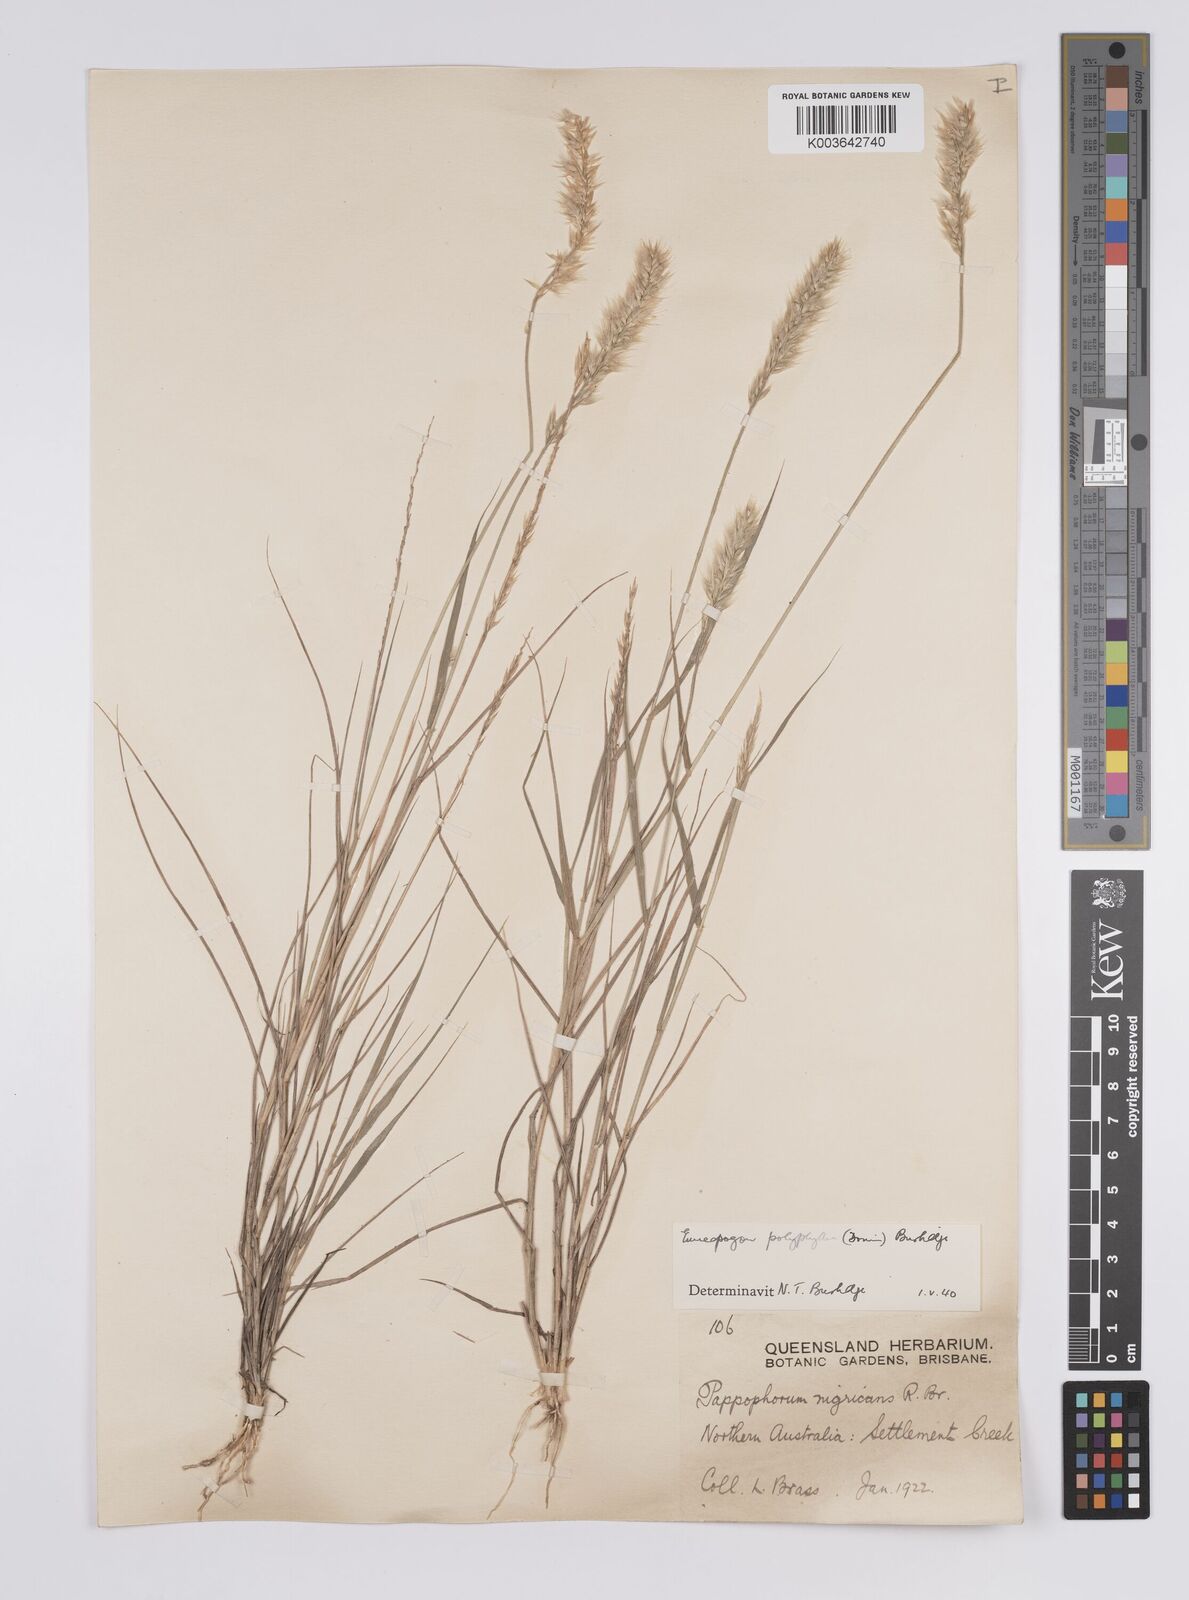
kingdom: Plantae
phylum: Tracheophyta
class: Liliopsida
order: Poales
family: Poaceae
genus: Enneapogon
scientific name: Enneapogon polyphyllus
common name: Leafy nineawn
